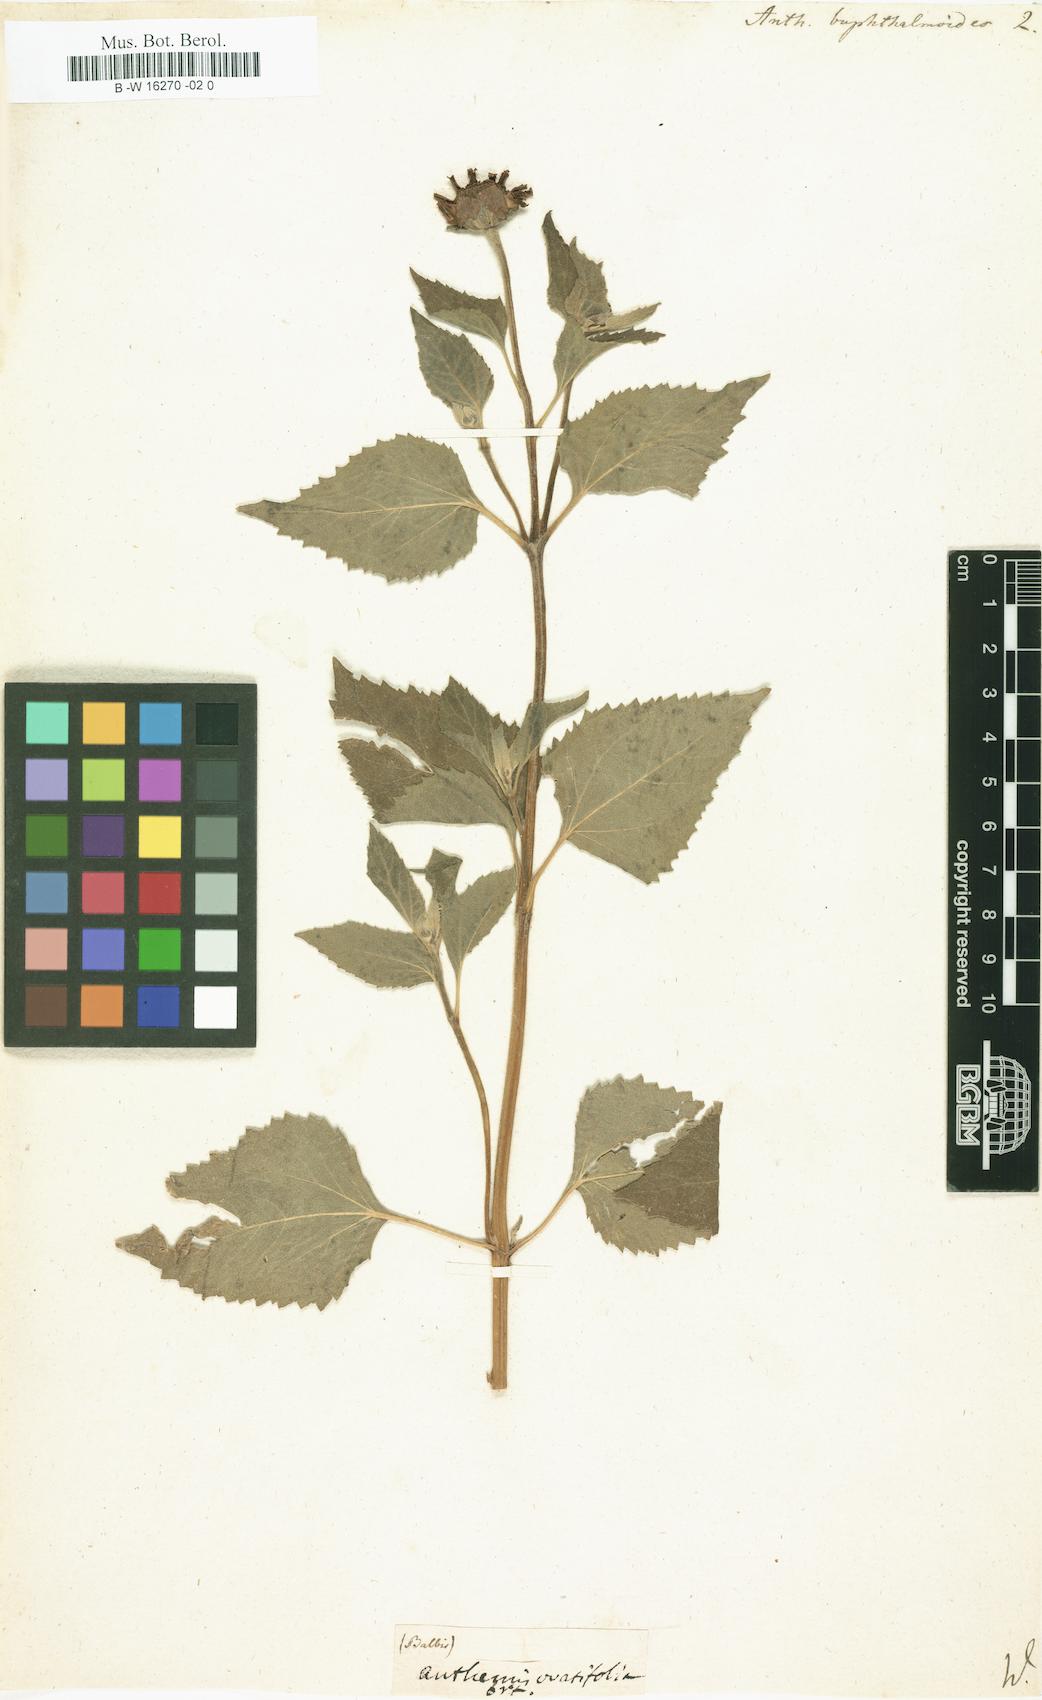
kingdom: Plantae
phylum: Tracheophyta
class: Magnoliopsida
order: Asterales
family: Asteraceae
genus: Heliopsis
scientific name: Heliopsis buphthalmoides
